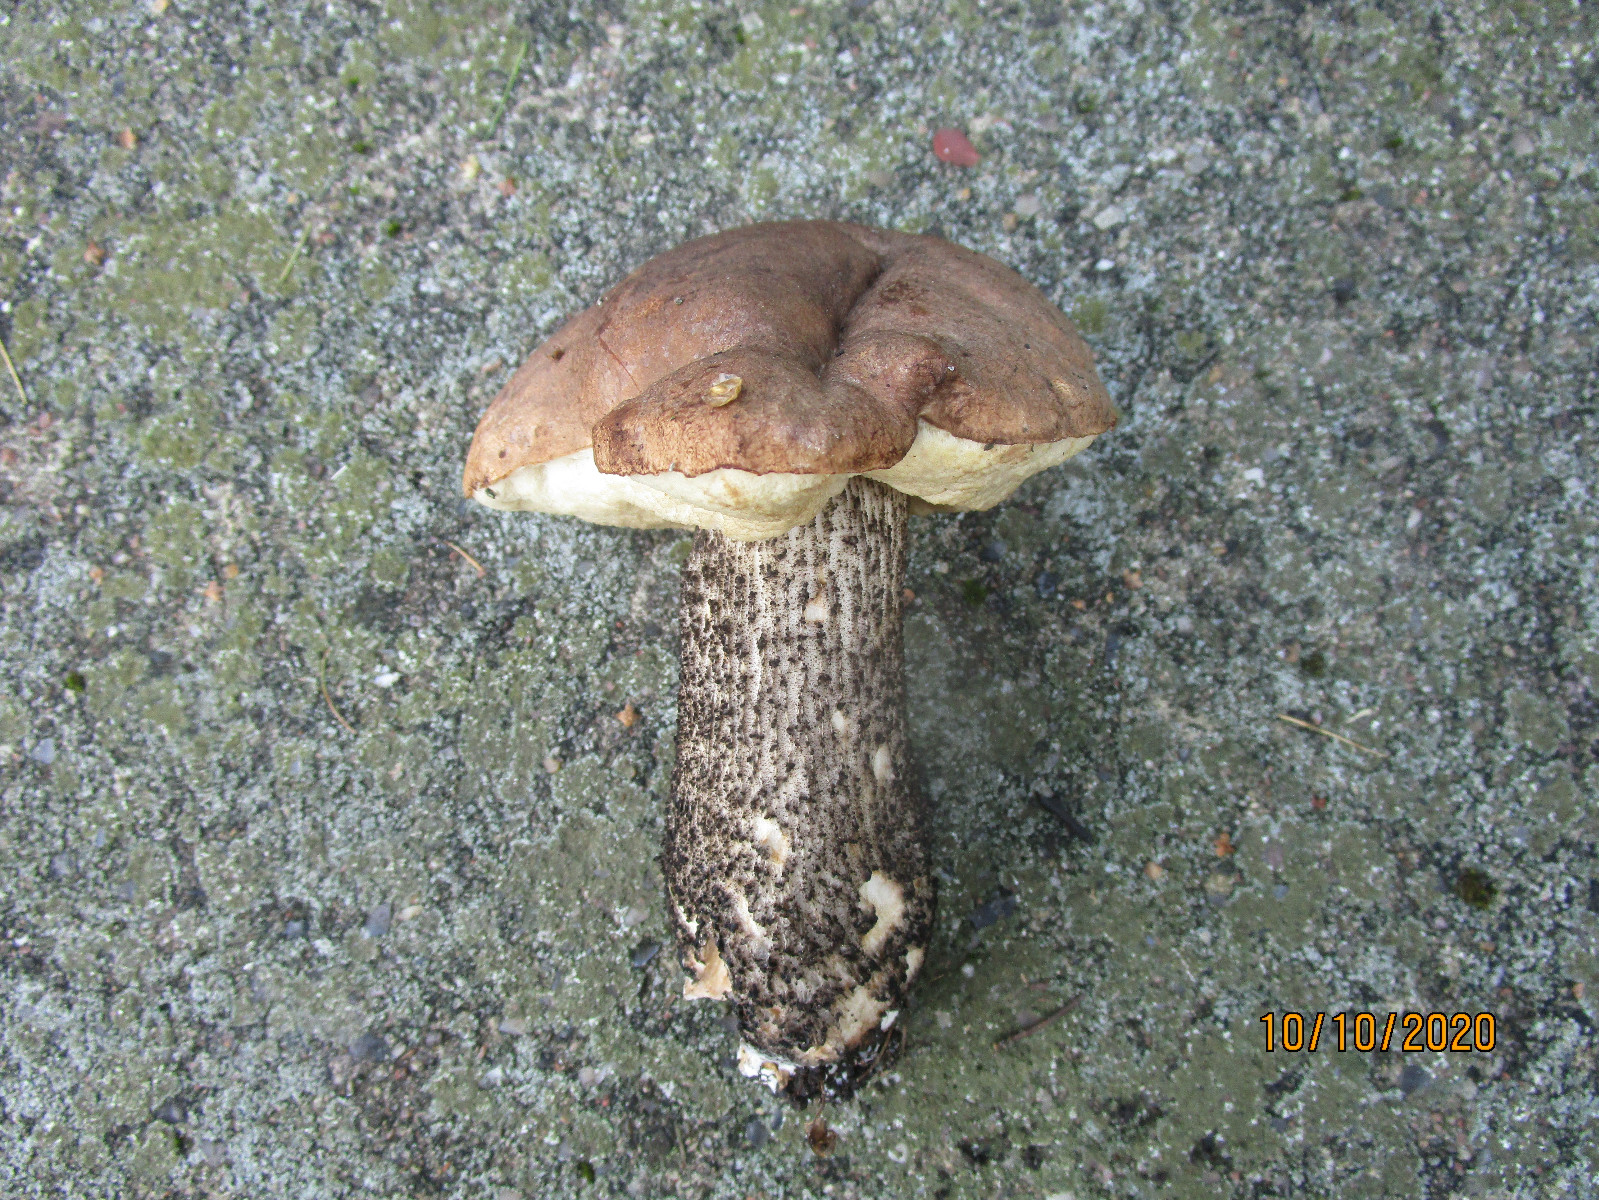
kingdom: Fungi
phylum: Basidiomycota
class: Agaricomycetes
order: Boletales
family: Boletaceae
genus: Leccinum
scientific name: Leccinum scabrum
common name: brun skælrørhat
